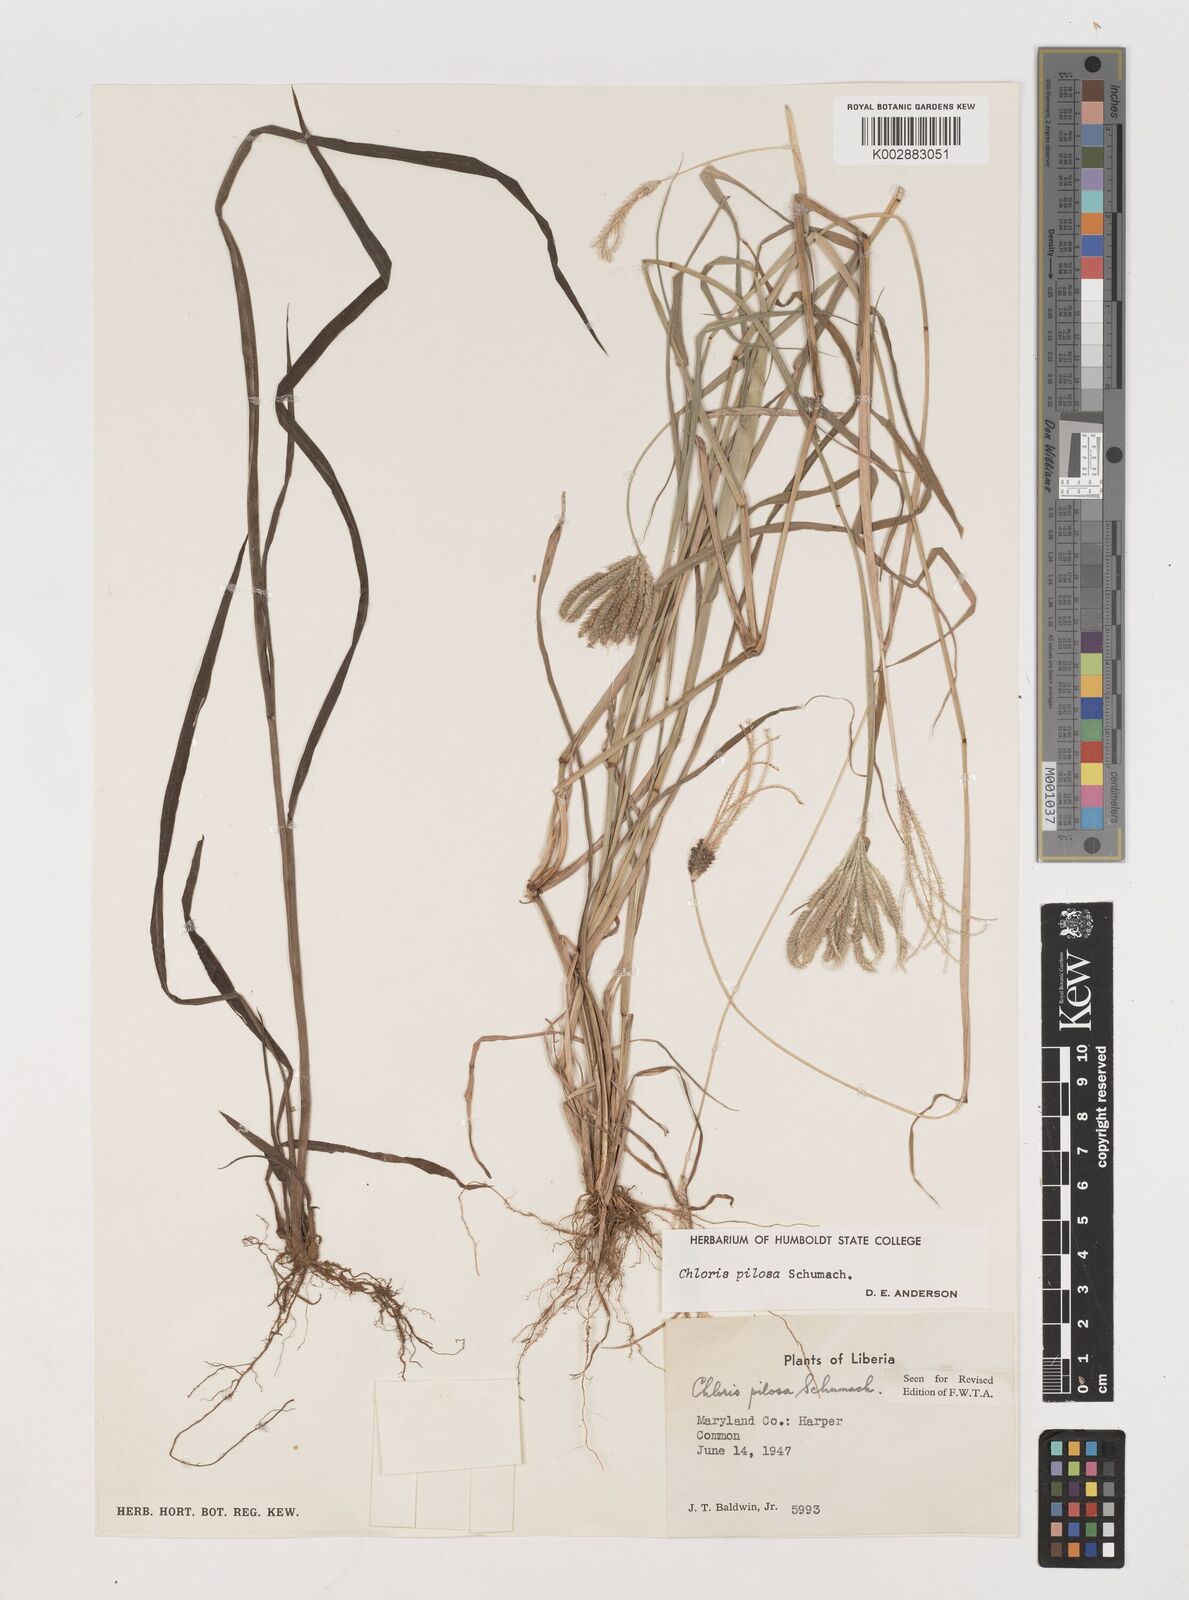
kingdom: Plantae
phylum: Tracheophyta
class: Liliopsida
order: Poales
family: Poaceae
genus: Chloris
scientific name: Chloris pilosa
